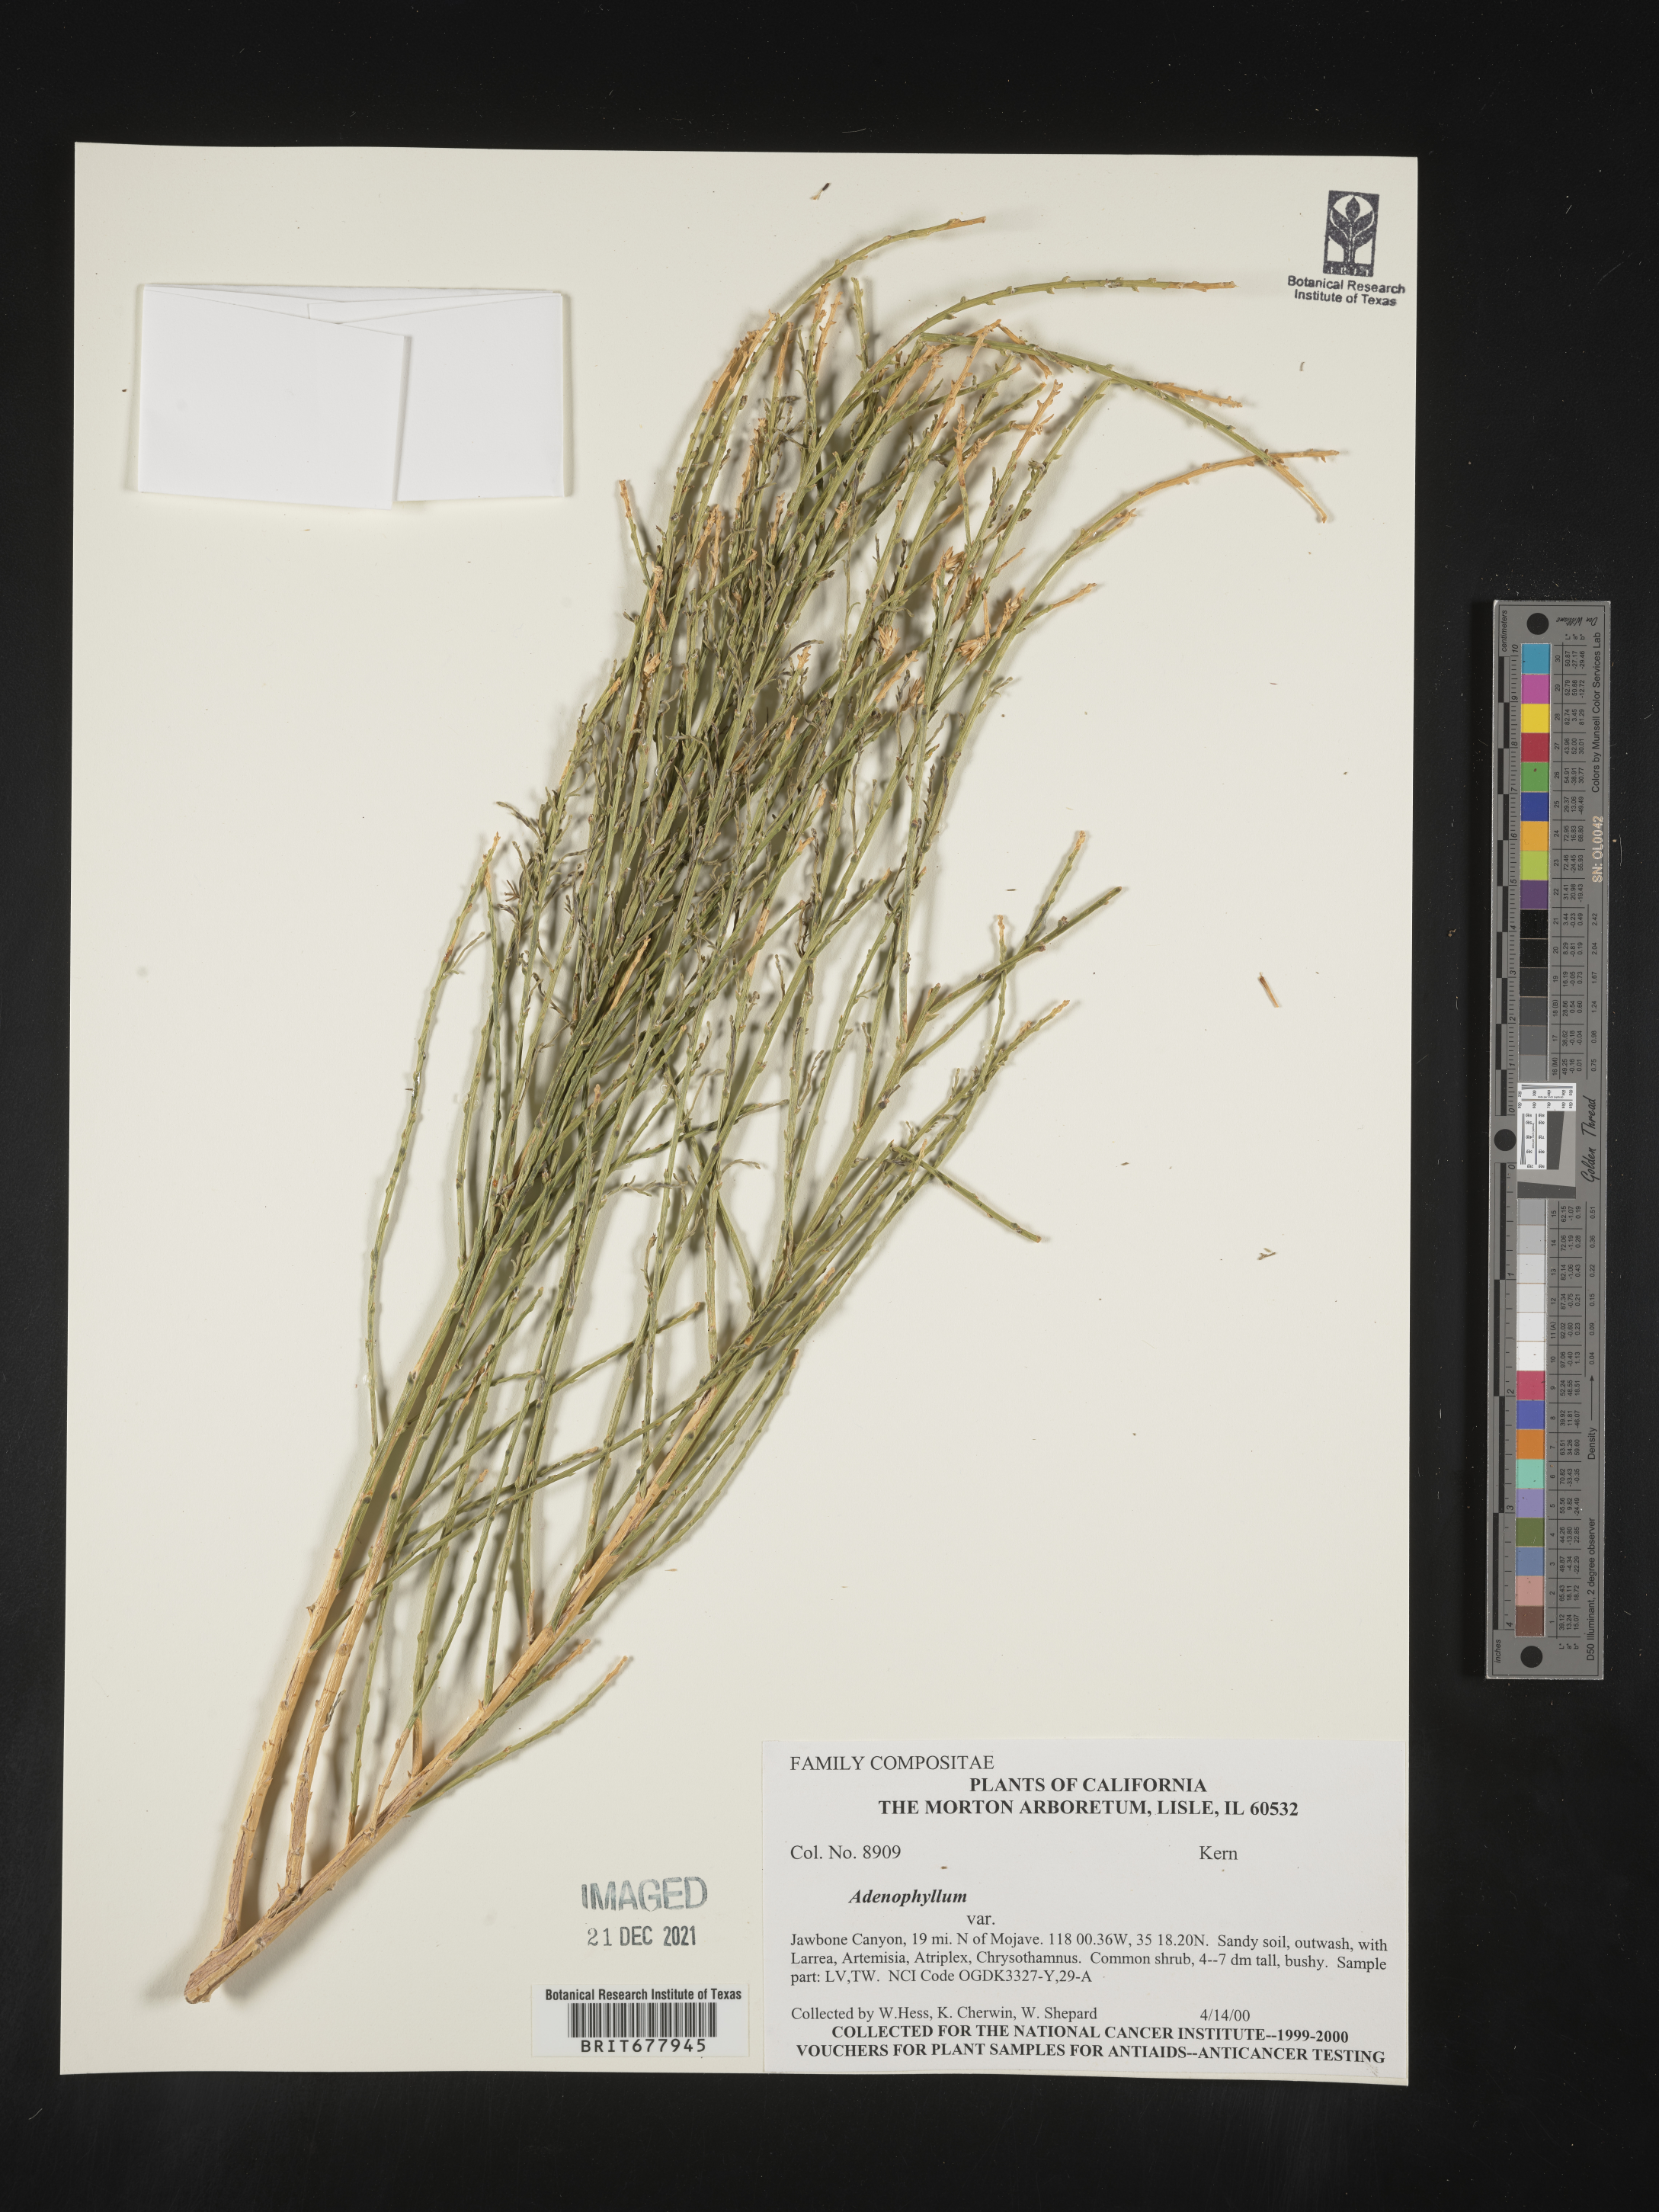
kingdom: Plantae
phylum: Tracheophyta
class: Magnoliopsida
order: Asterales
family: Asteraceae
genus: Adenophyllum
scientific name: Adenophyllum
